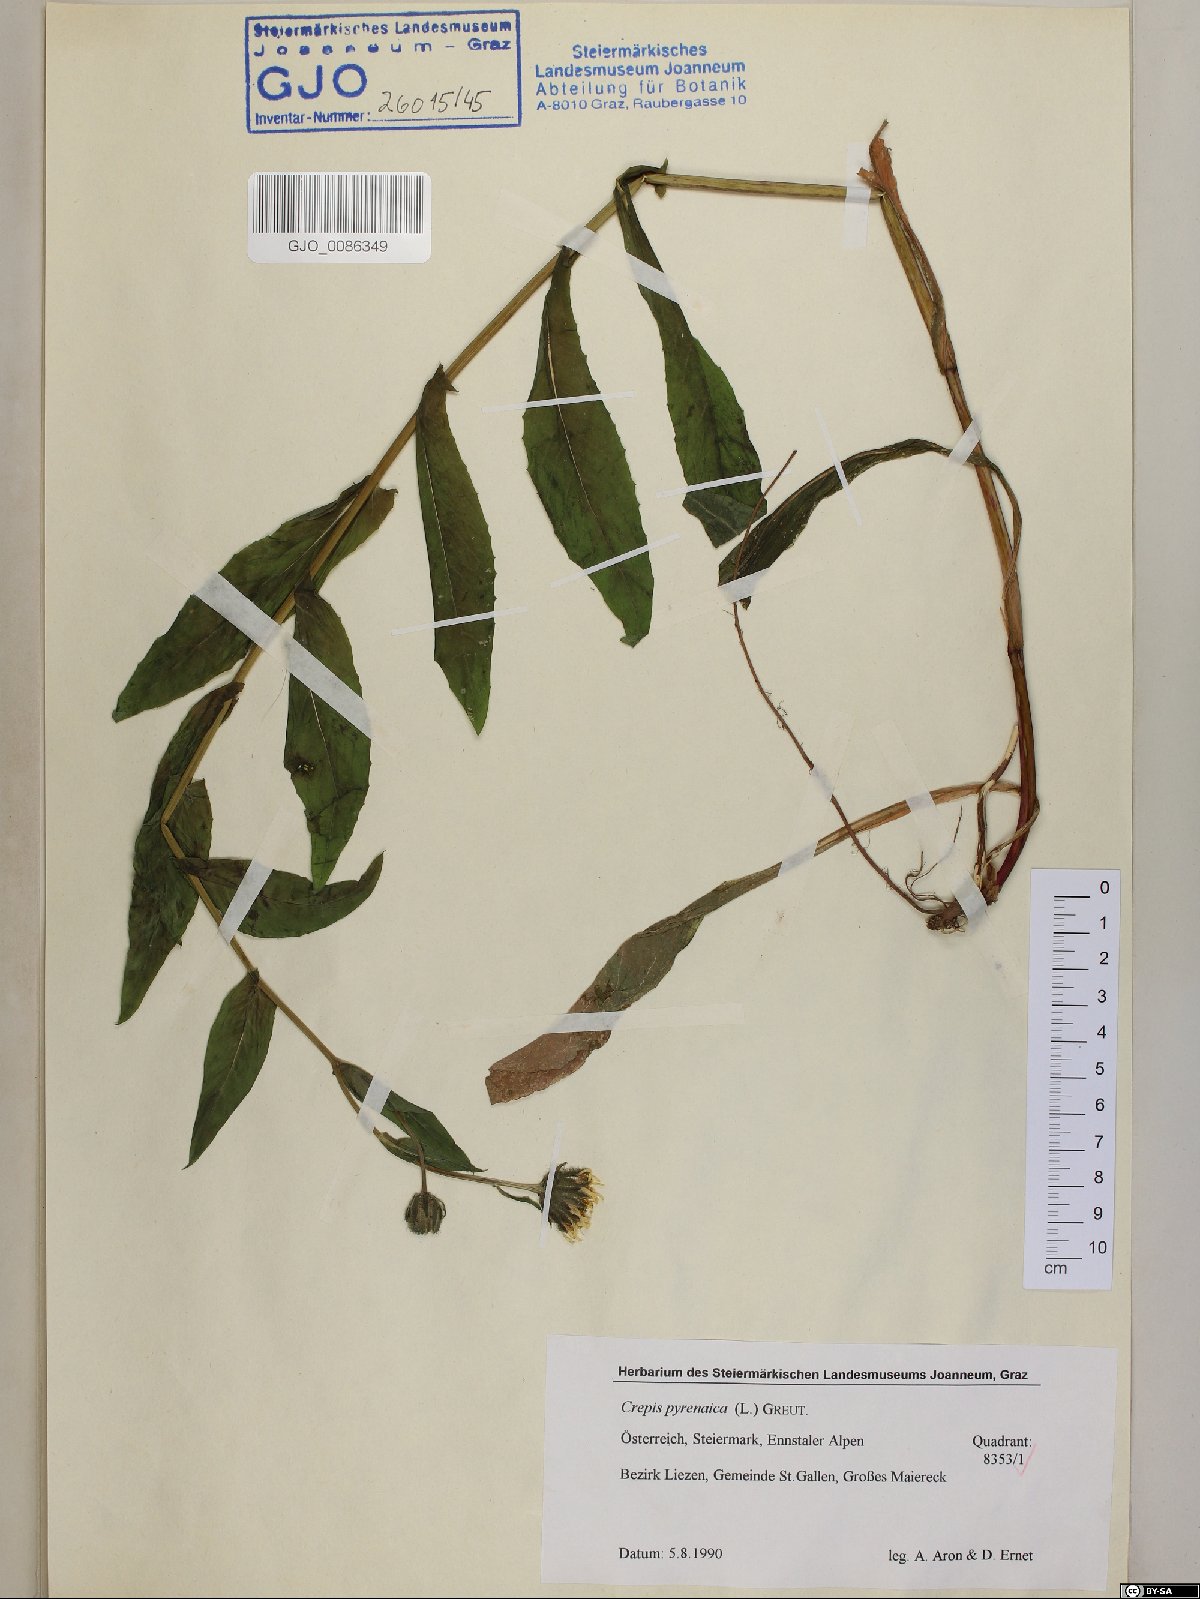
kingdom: Plantae
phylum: Tracheophyta
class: Magnoliopsida
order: Asterales
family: Asteraceae
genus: Crepis
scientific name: Crepis pyrenaica
